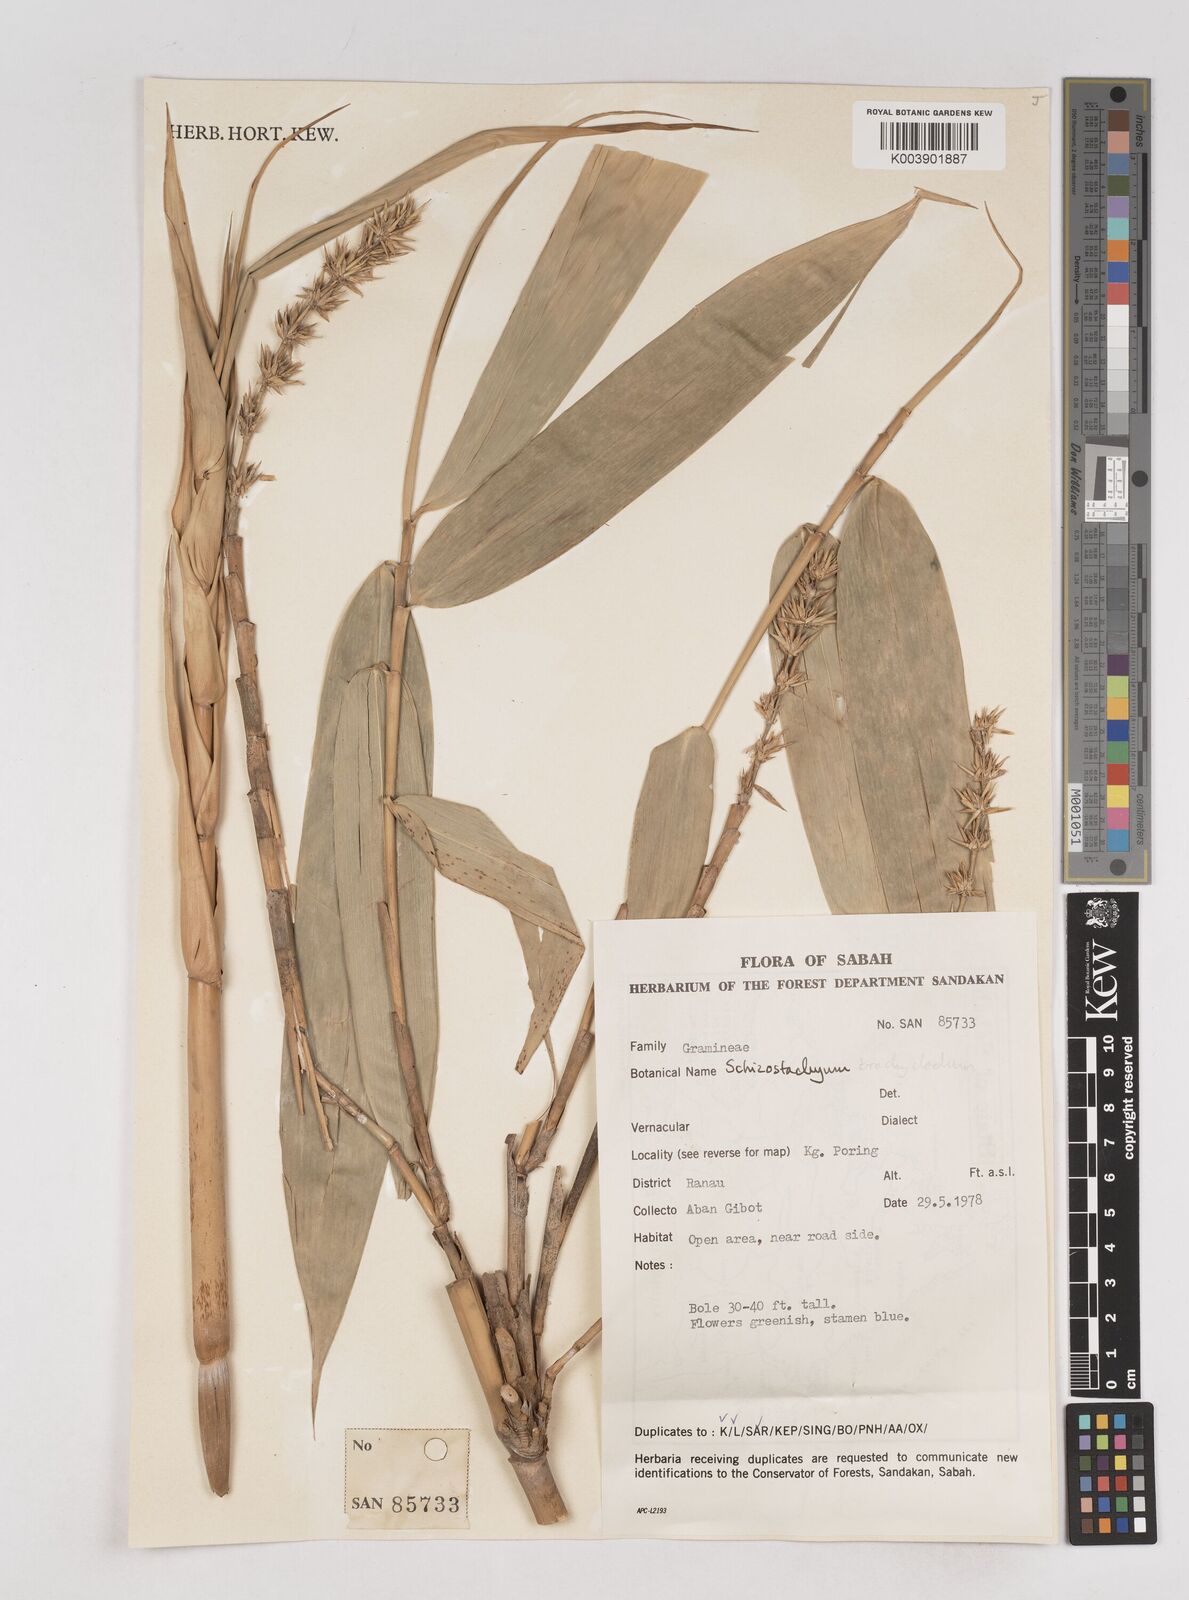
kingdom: Plantae
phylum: Tracheophyta
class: Liliopsida
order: Poales
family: Poaceae
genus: Schizostachyum
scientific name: Schizostachyum brachycladum
